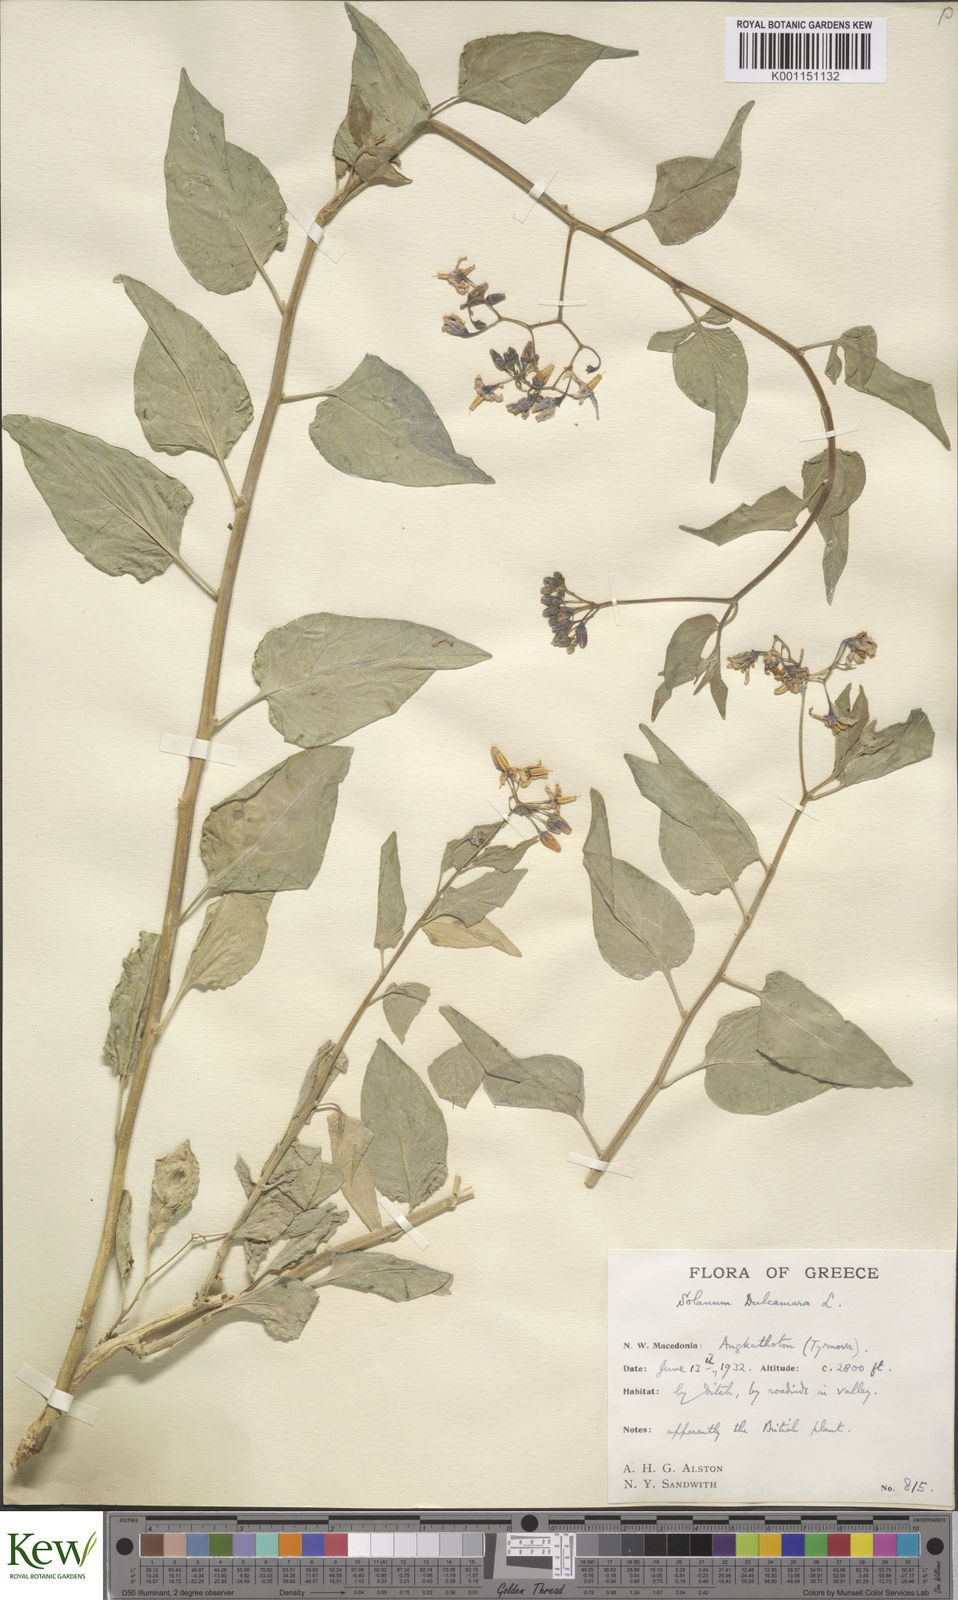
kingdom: Plantae
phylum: Tracheophyta
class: Magnoliopsida
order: Solanales
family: Solanaceae
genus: Solanum
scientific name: Solanum dulcamara
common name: Climbing nightshade
